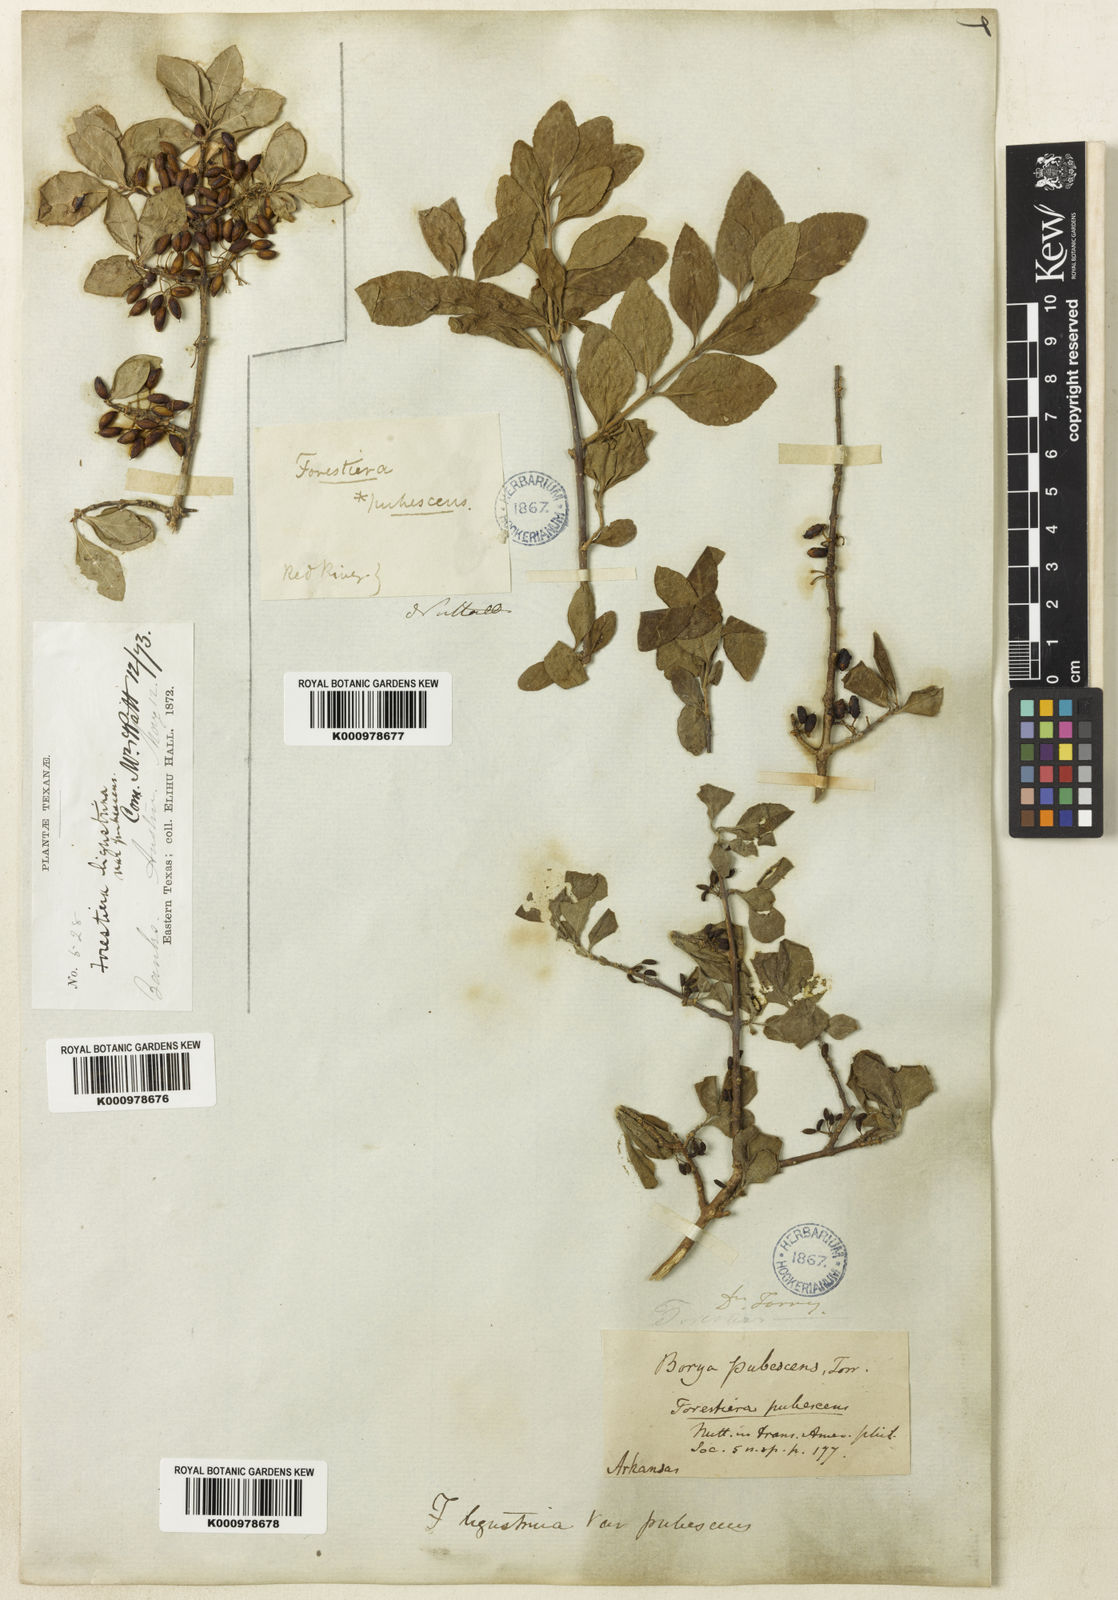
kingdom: Plantae
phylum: Tracheophyta
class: Magnoliopsida
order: Lamiales
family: Oleaceae
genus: Forestiera
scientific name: Forestiera pubescens
